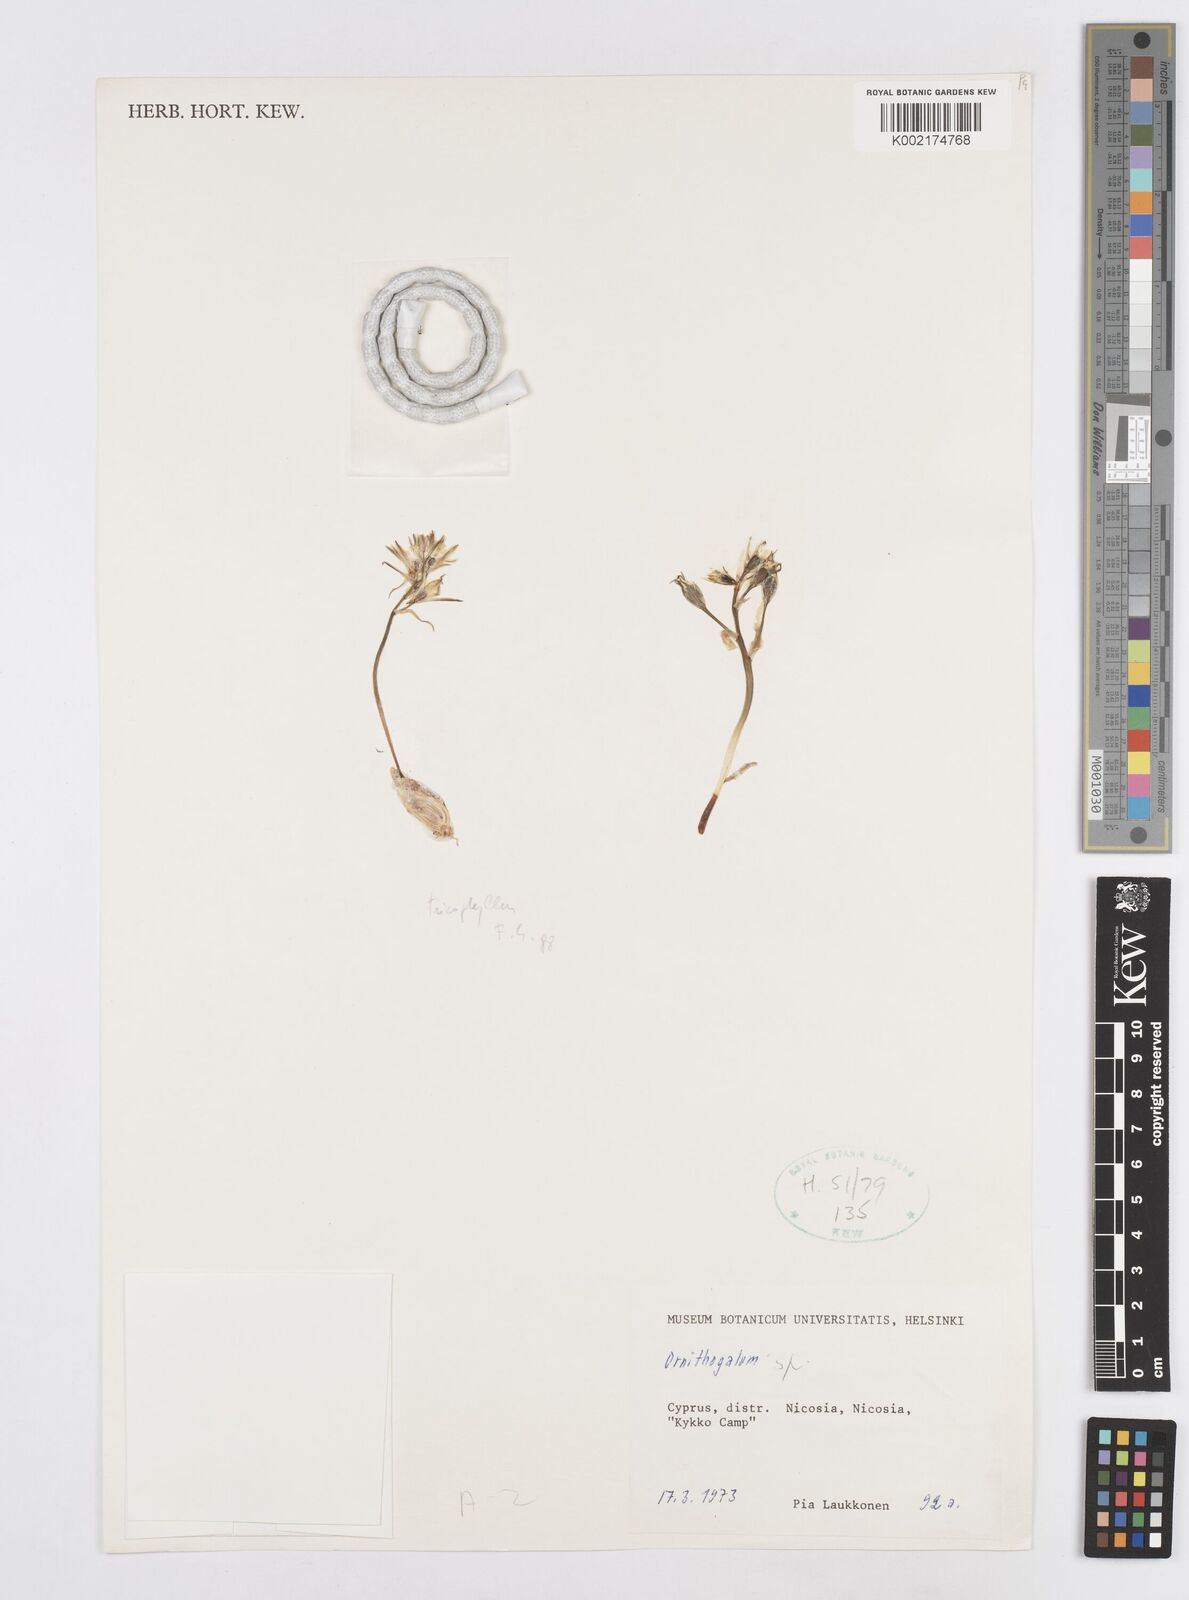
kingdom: Plantae
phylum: Tracheophyta
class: Liliopsida
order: Asparagales
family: Asparagaceae
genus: Ornithogalum
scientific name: Ornithogalum trichophyllum
